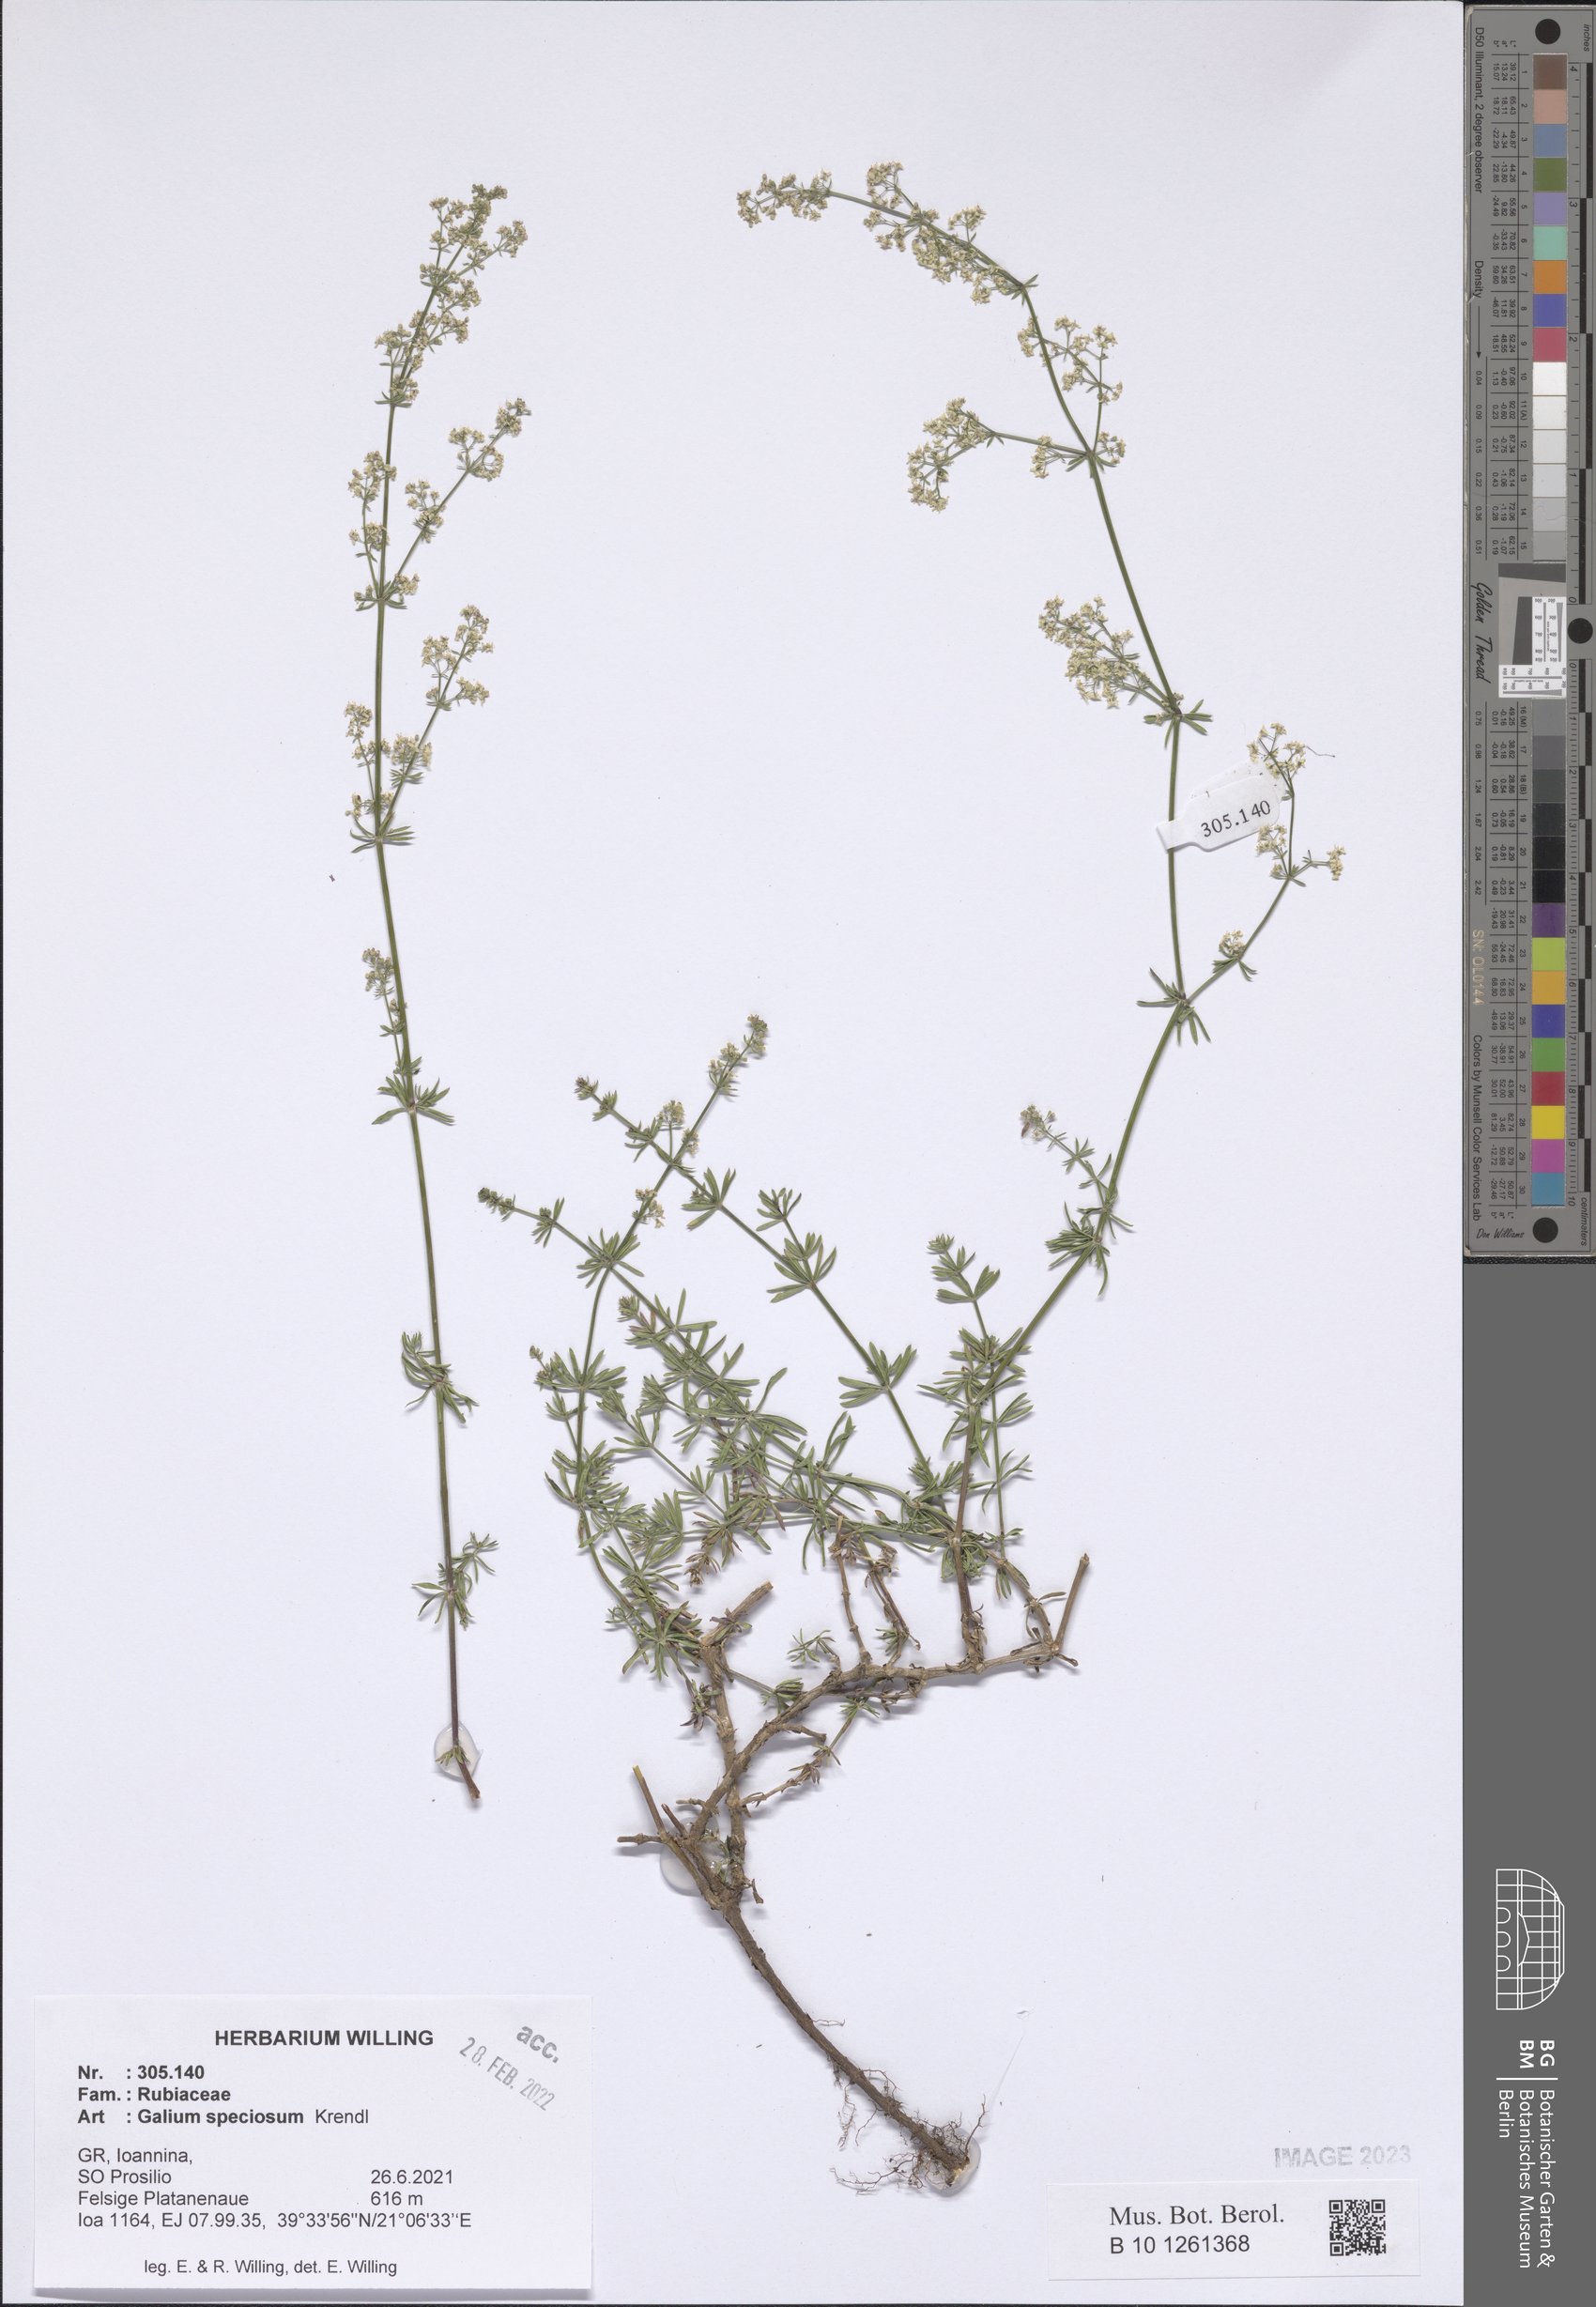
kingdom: Plantae
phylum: Tracheophyta
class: Magnoliopsida
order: Gentianales
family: Rubiaceae
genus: Galium
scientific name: Galium speciosum
